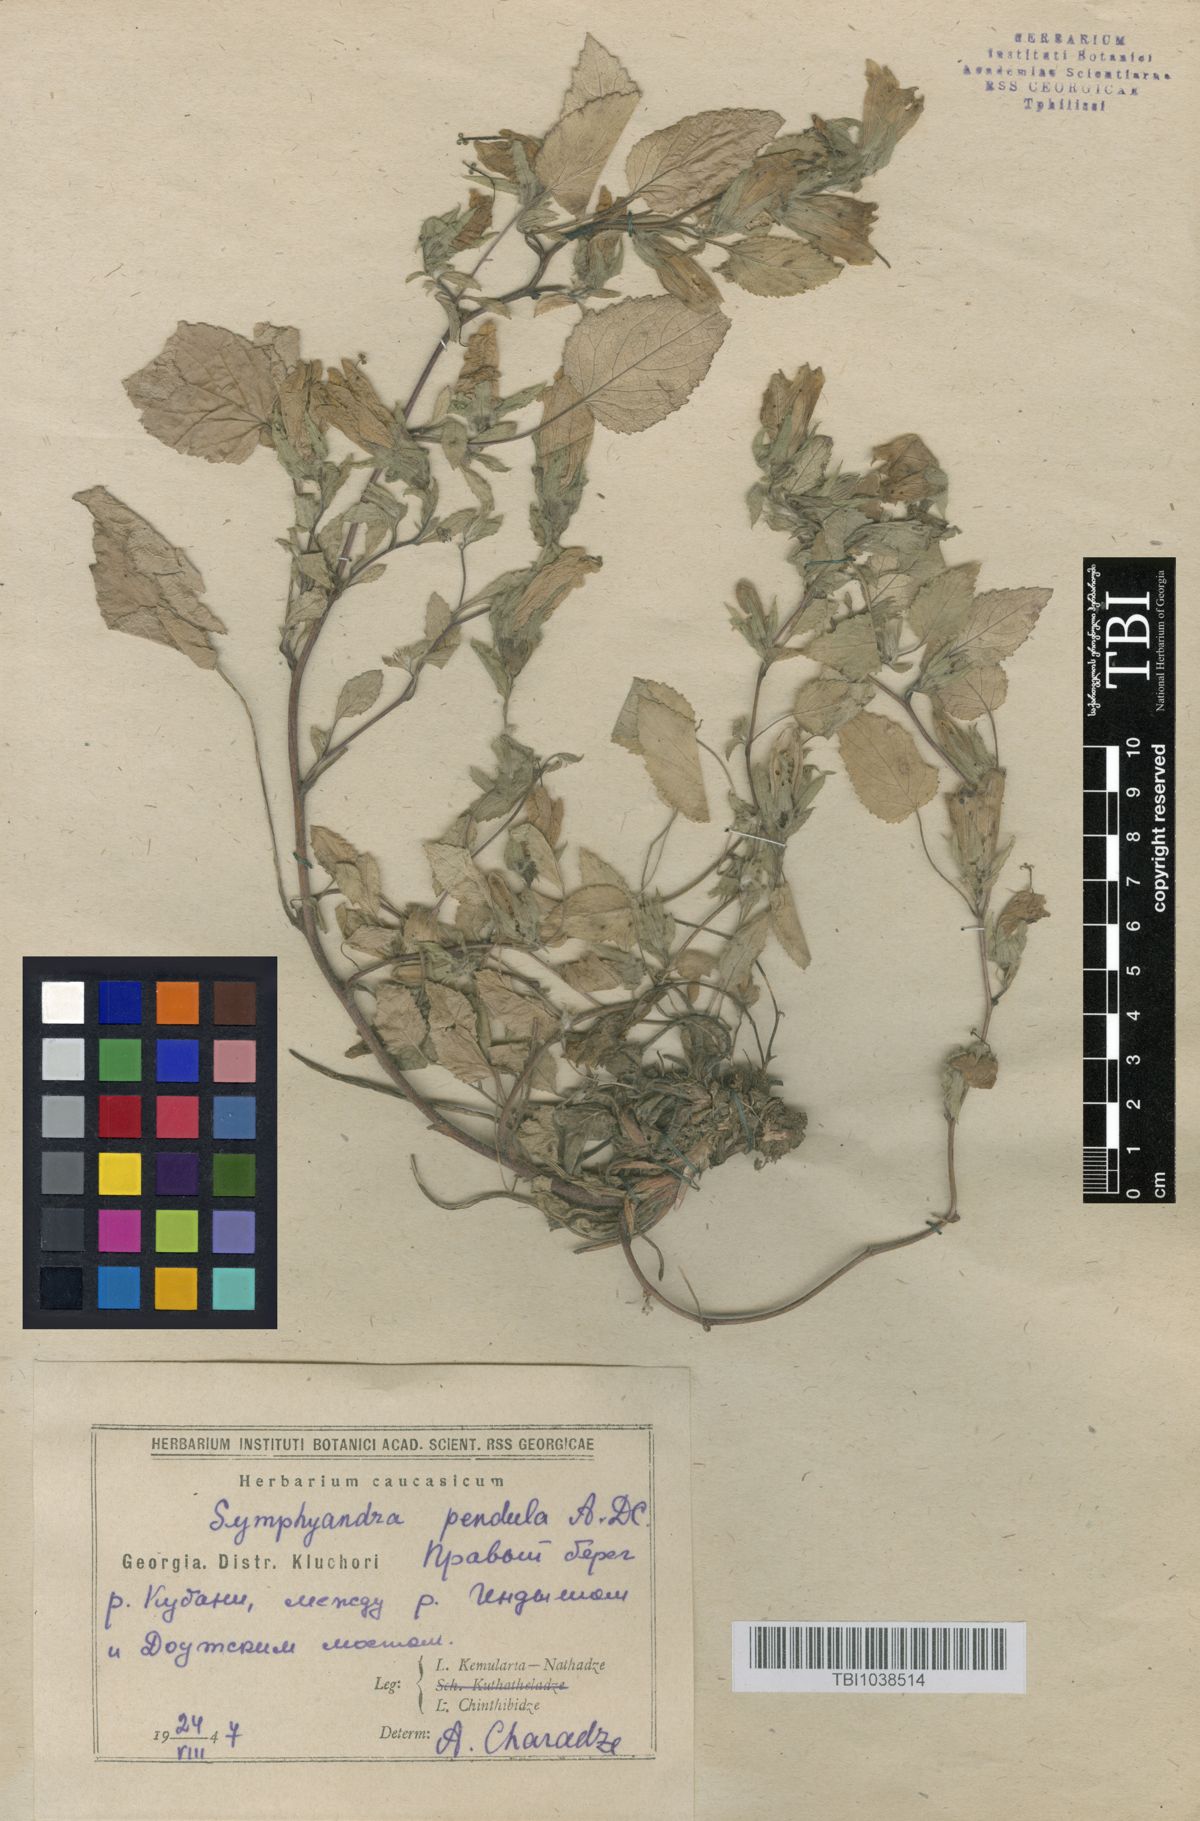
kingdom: Plantae
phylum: Tracheophyta
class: Magnoliopsida
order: Asterales
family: Campanulaceae
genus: Campanula
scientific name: Campanula pendula
